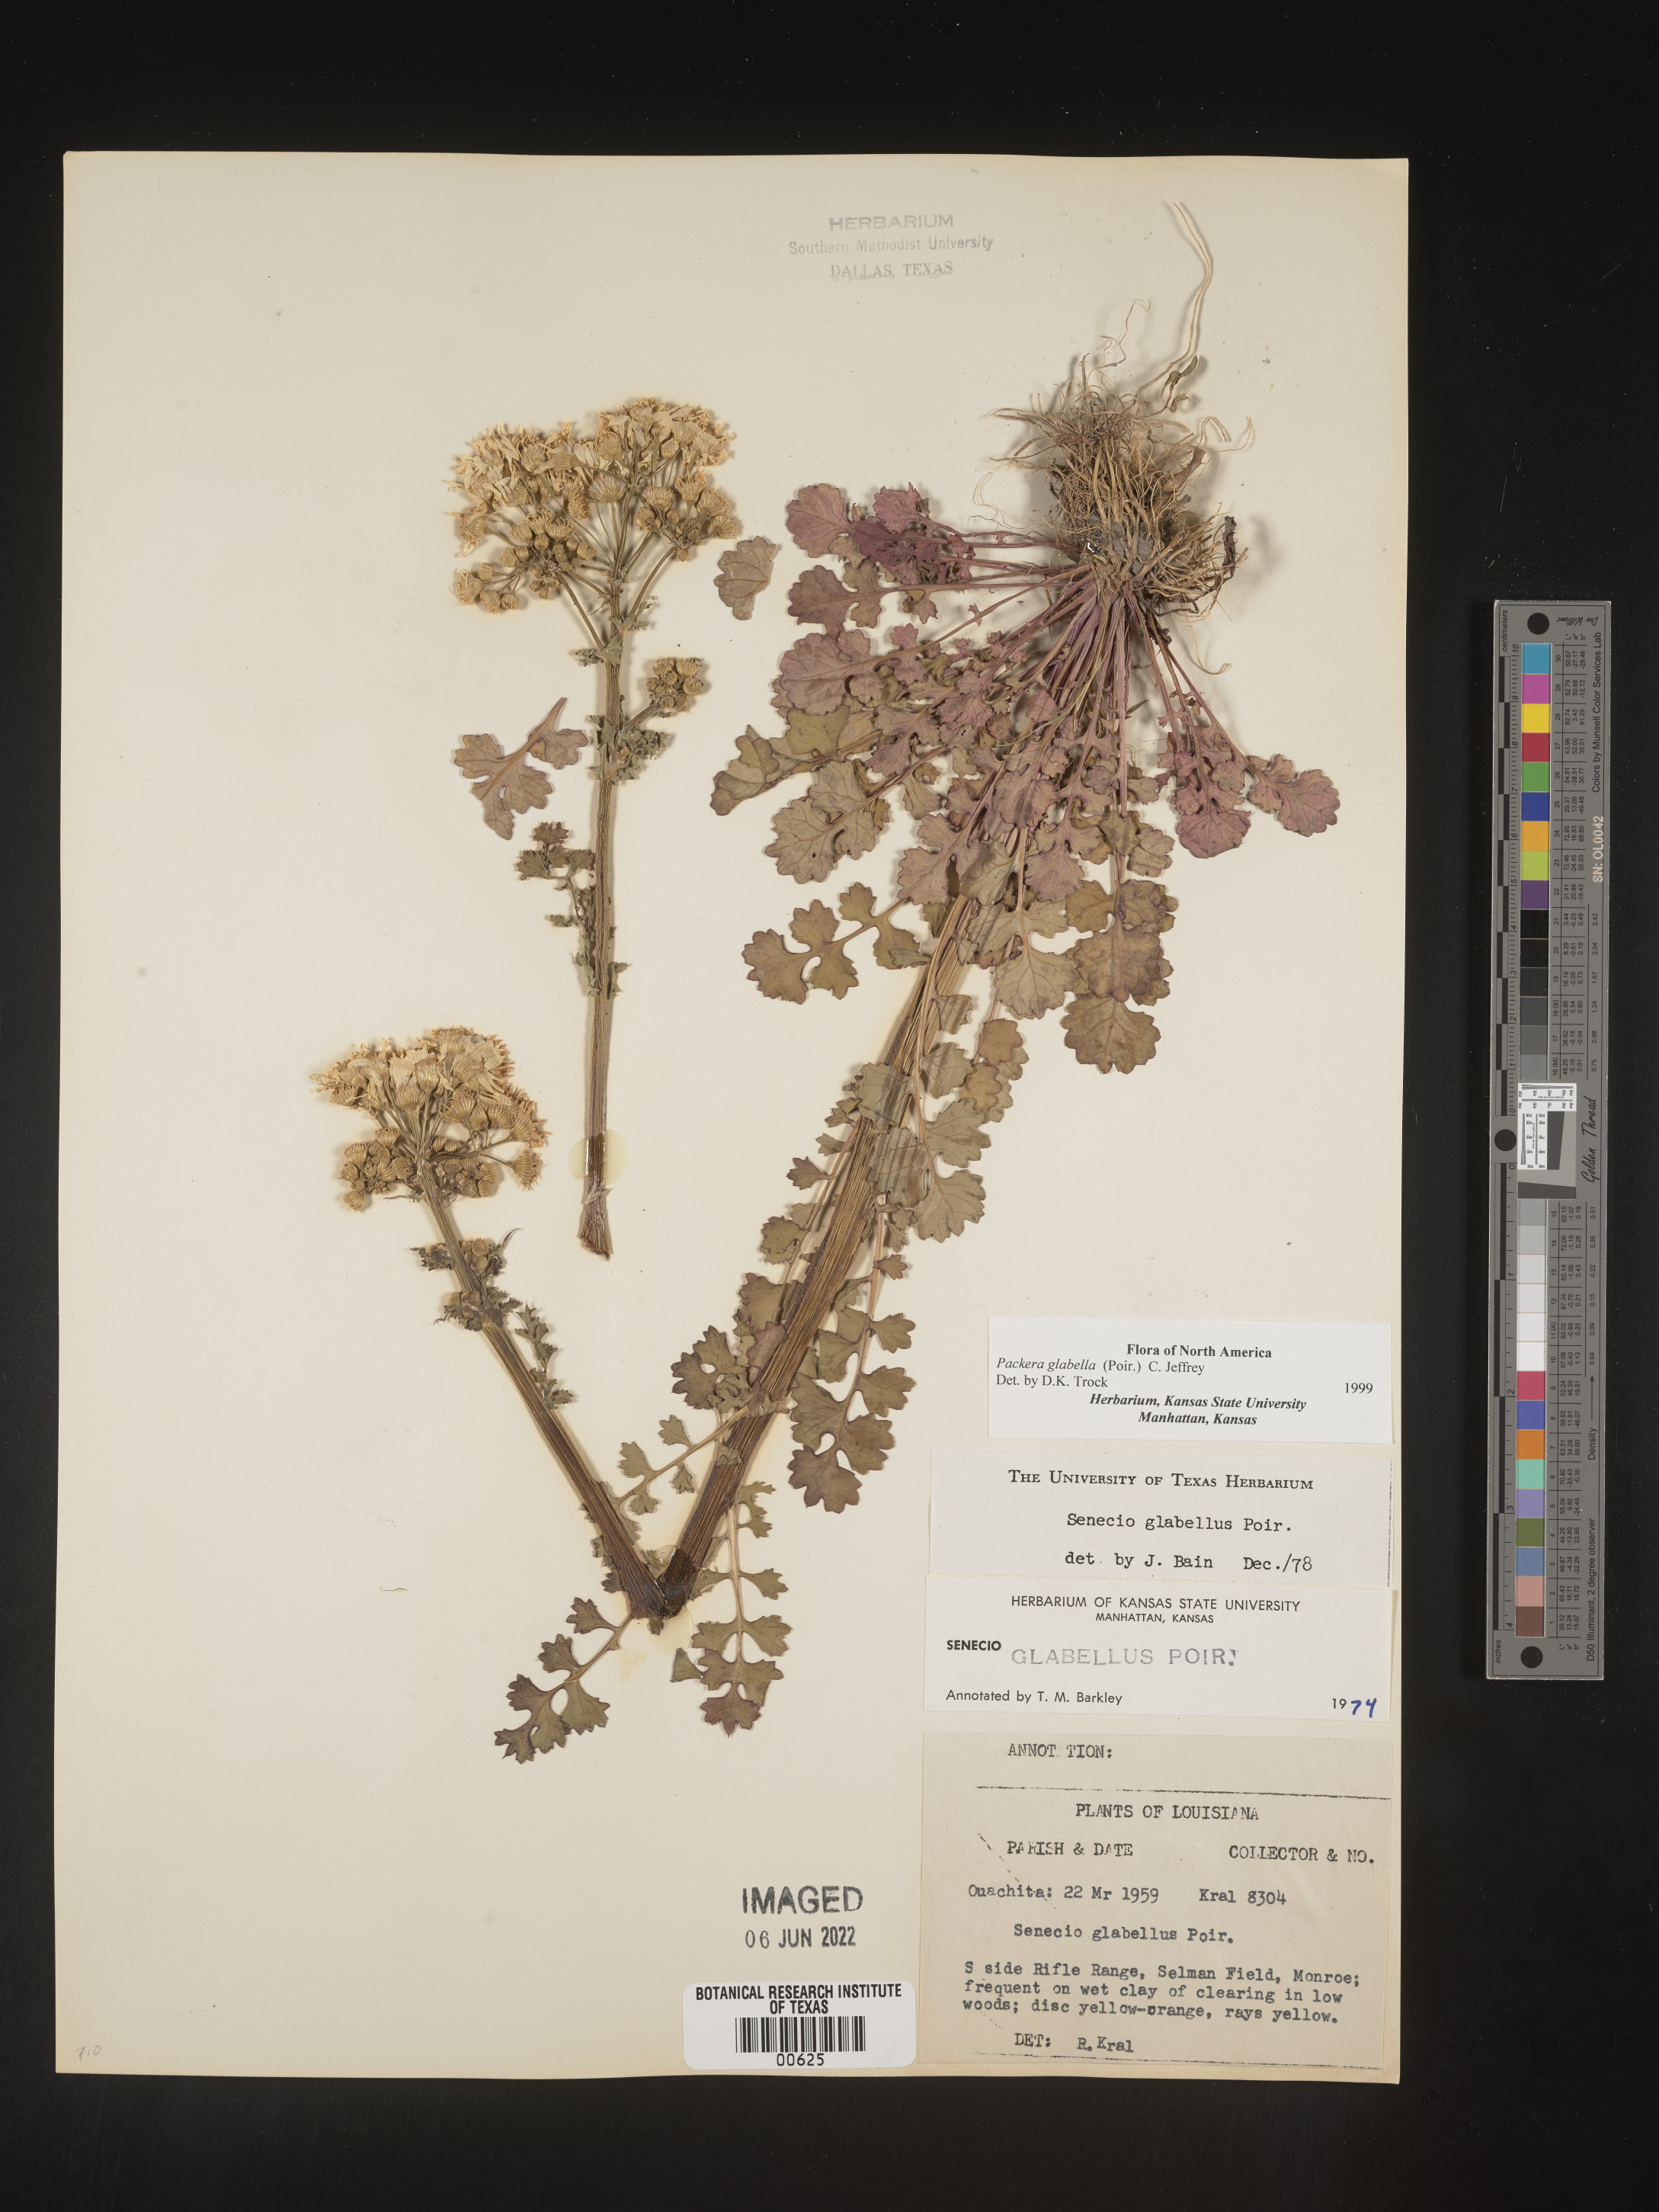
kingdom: Plantae
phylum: Tracheophyta
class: Magnoliopsida
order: Asterales
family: Asteraceae
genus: Packera
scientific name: Packera glabella
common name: Butterweed
